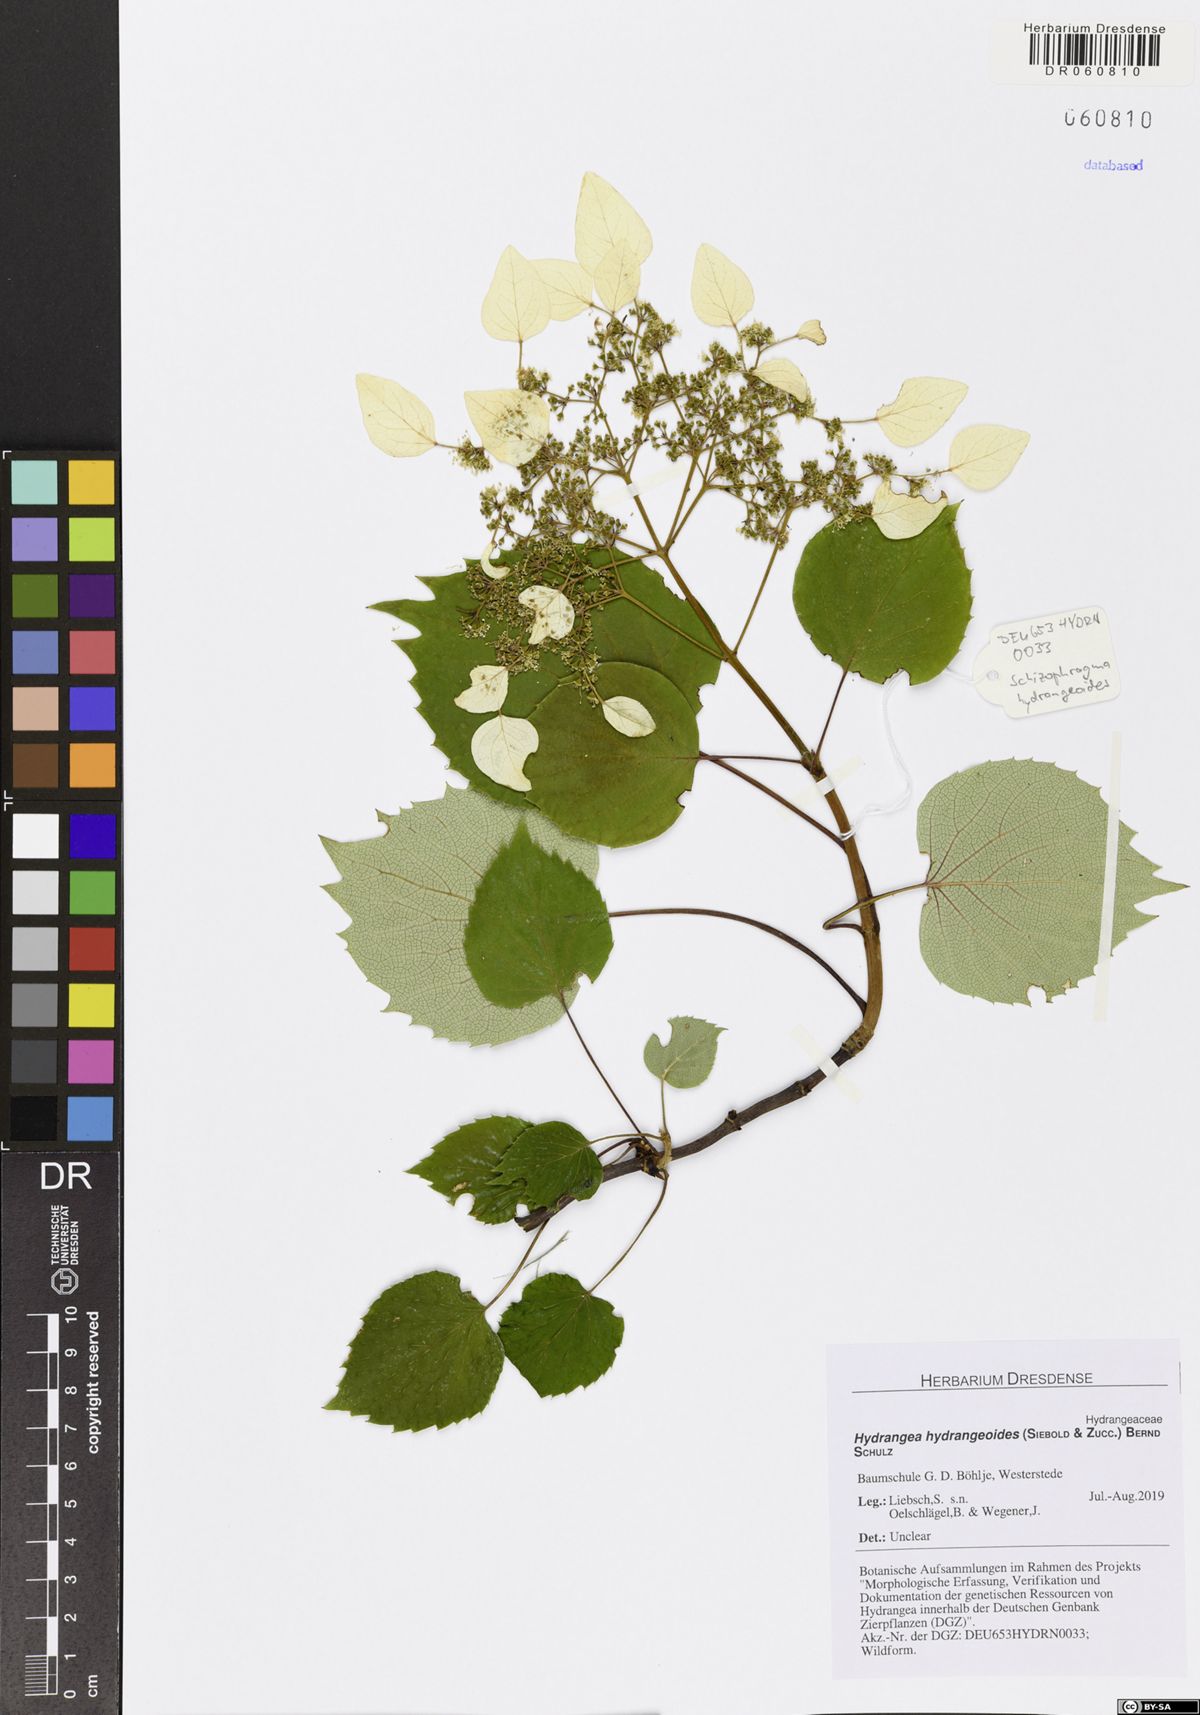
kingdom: Plantae
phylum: Tracheophyta
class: Magnoliopsida
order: Cornales
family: Hydrangeaceae
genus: Hydrangea
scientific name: Hydrangea hydrangeoides
